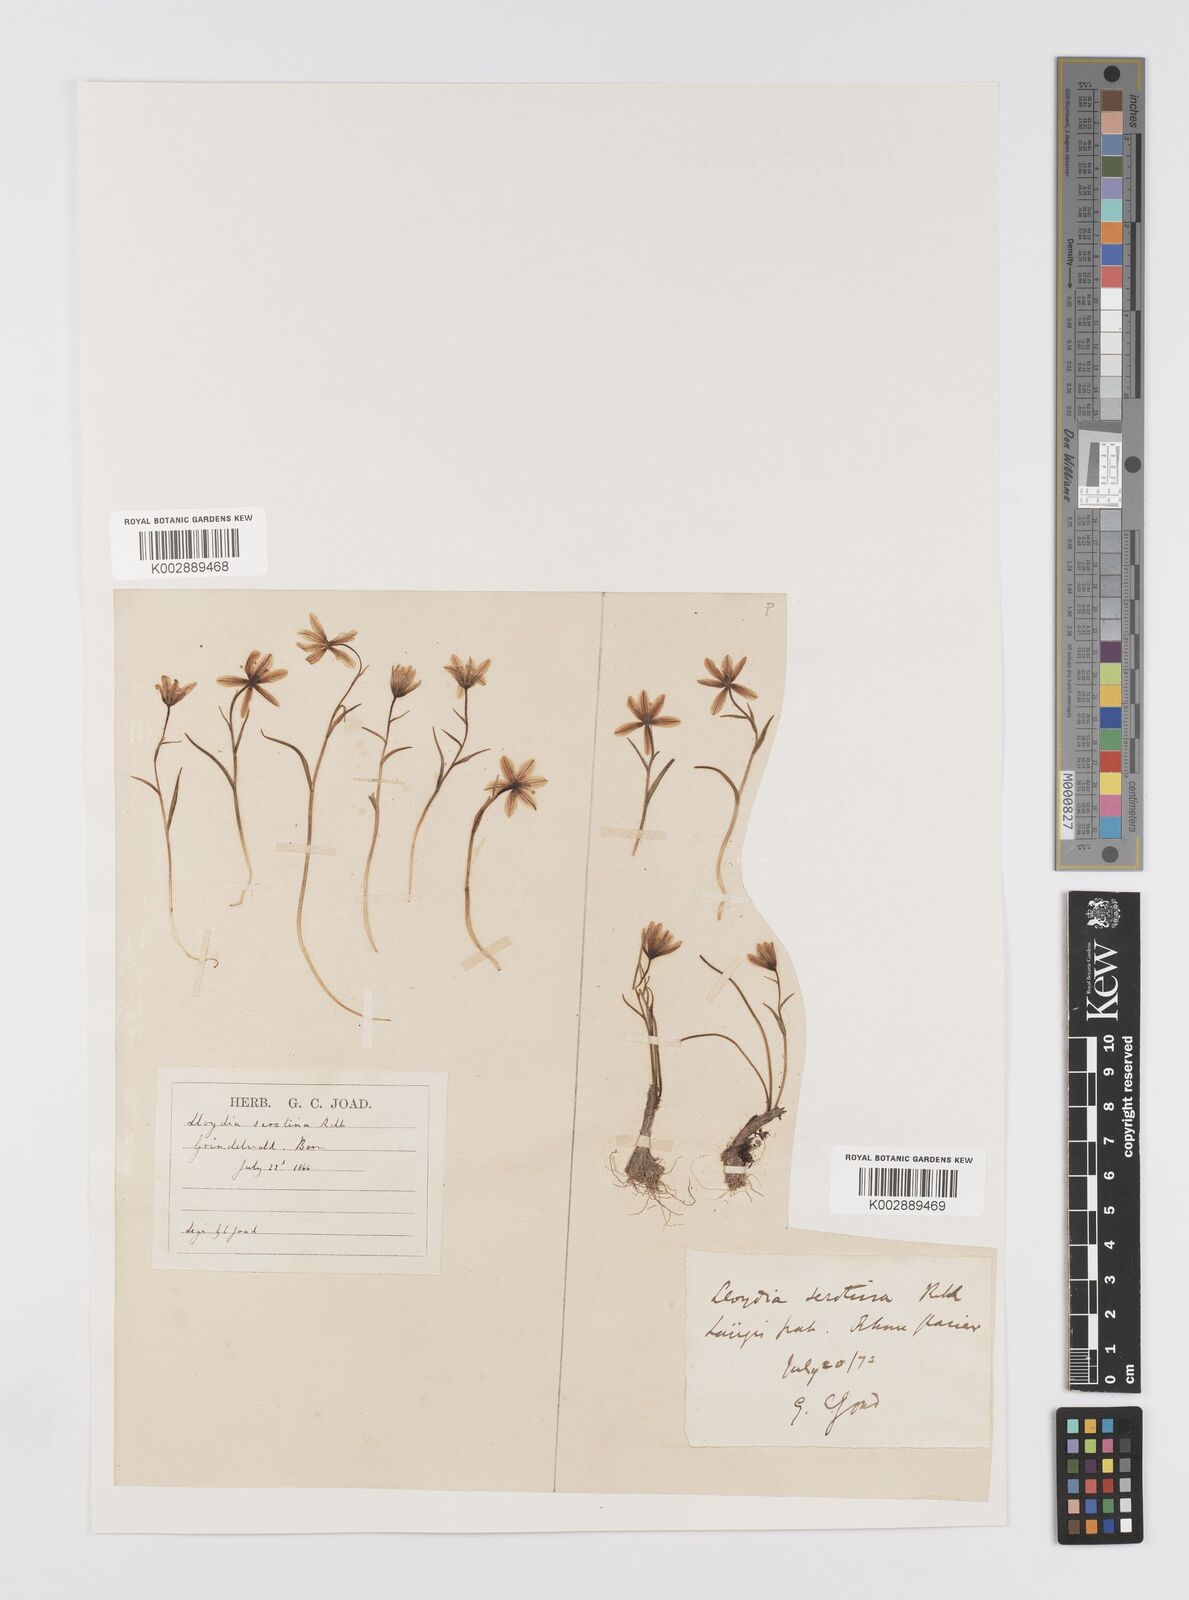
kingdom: Plantae
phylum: Tracheophyta
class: Liliopsida
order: Liliales
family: Liliaceae
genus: Gagea
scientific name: Gagea
